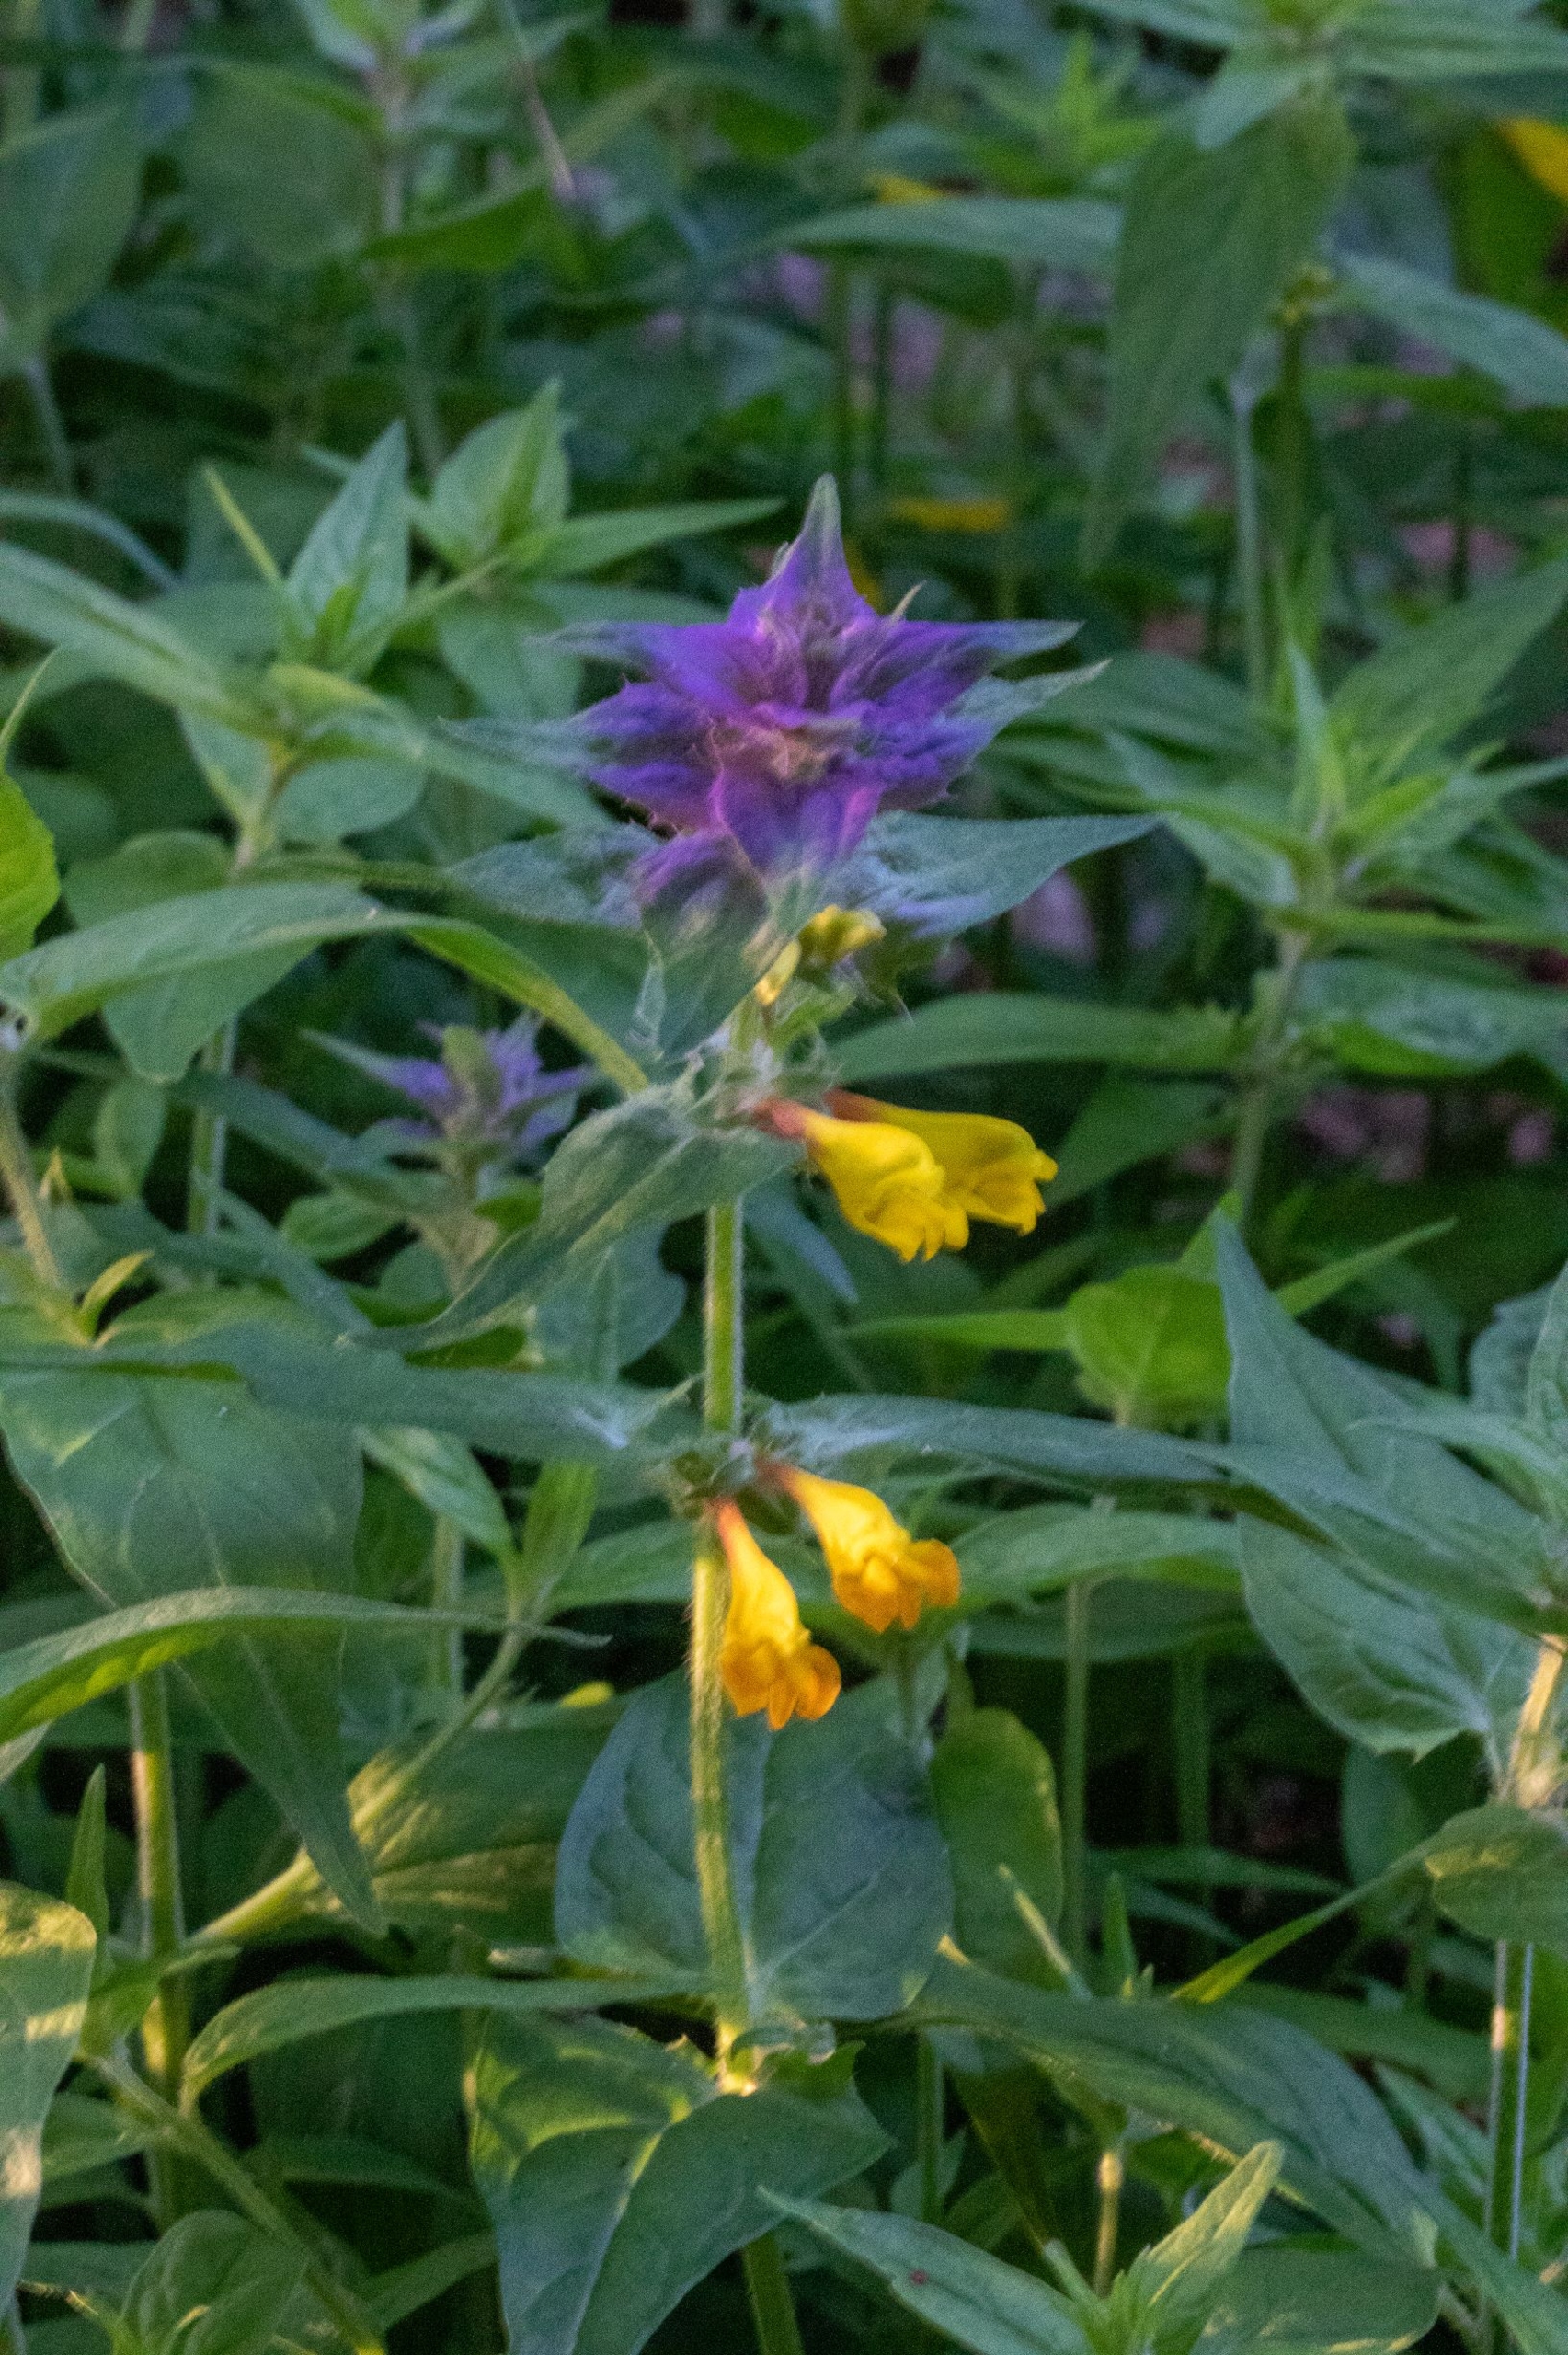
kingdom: Plantae
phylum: Tracheophyta
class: Magnoliopsida
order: Lamiales
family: Orobanchaceae
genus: Melampyrum
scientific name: Melampyrum nemorosum
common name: Blåtoppet kohvede
